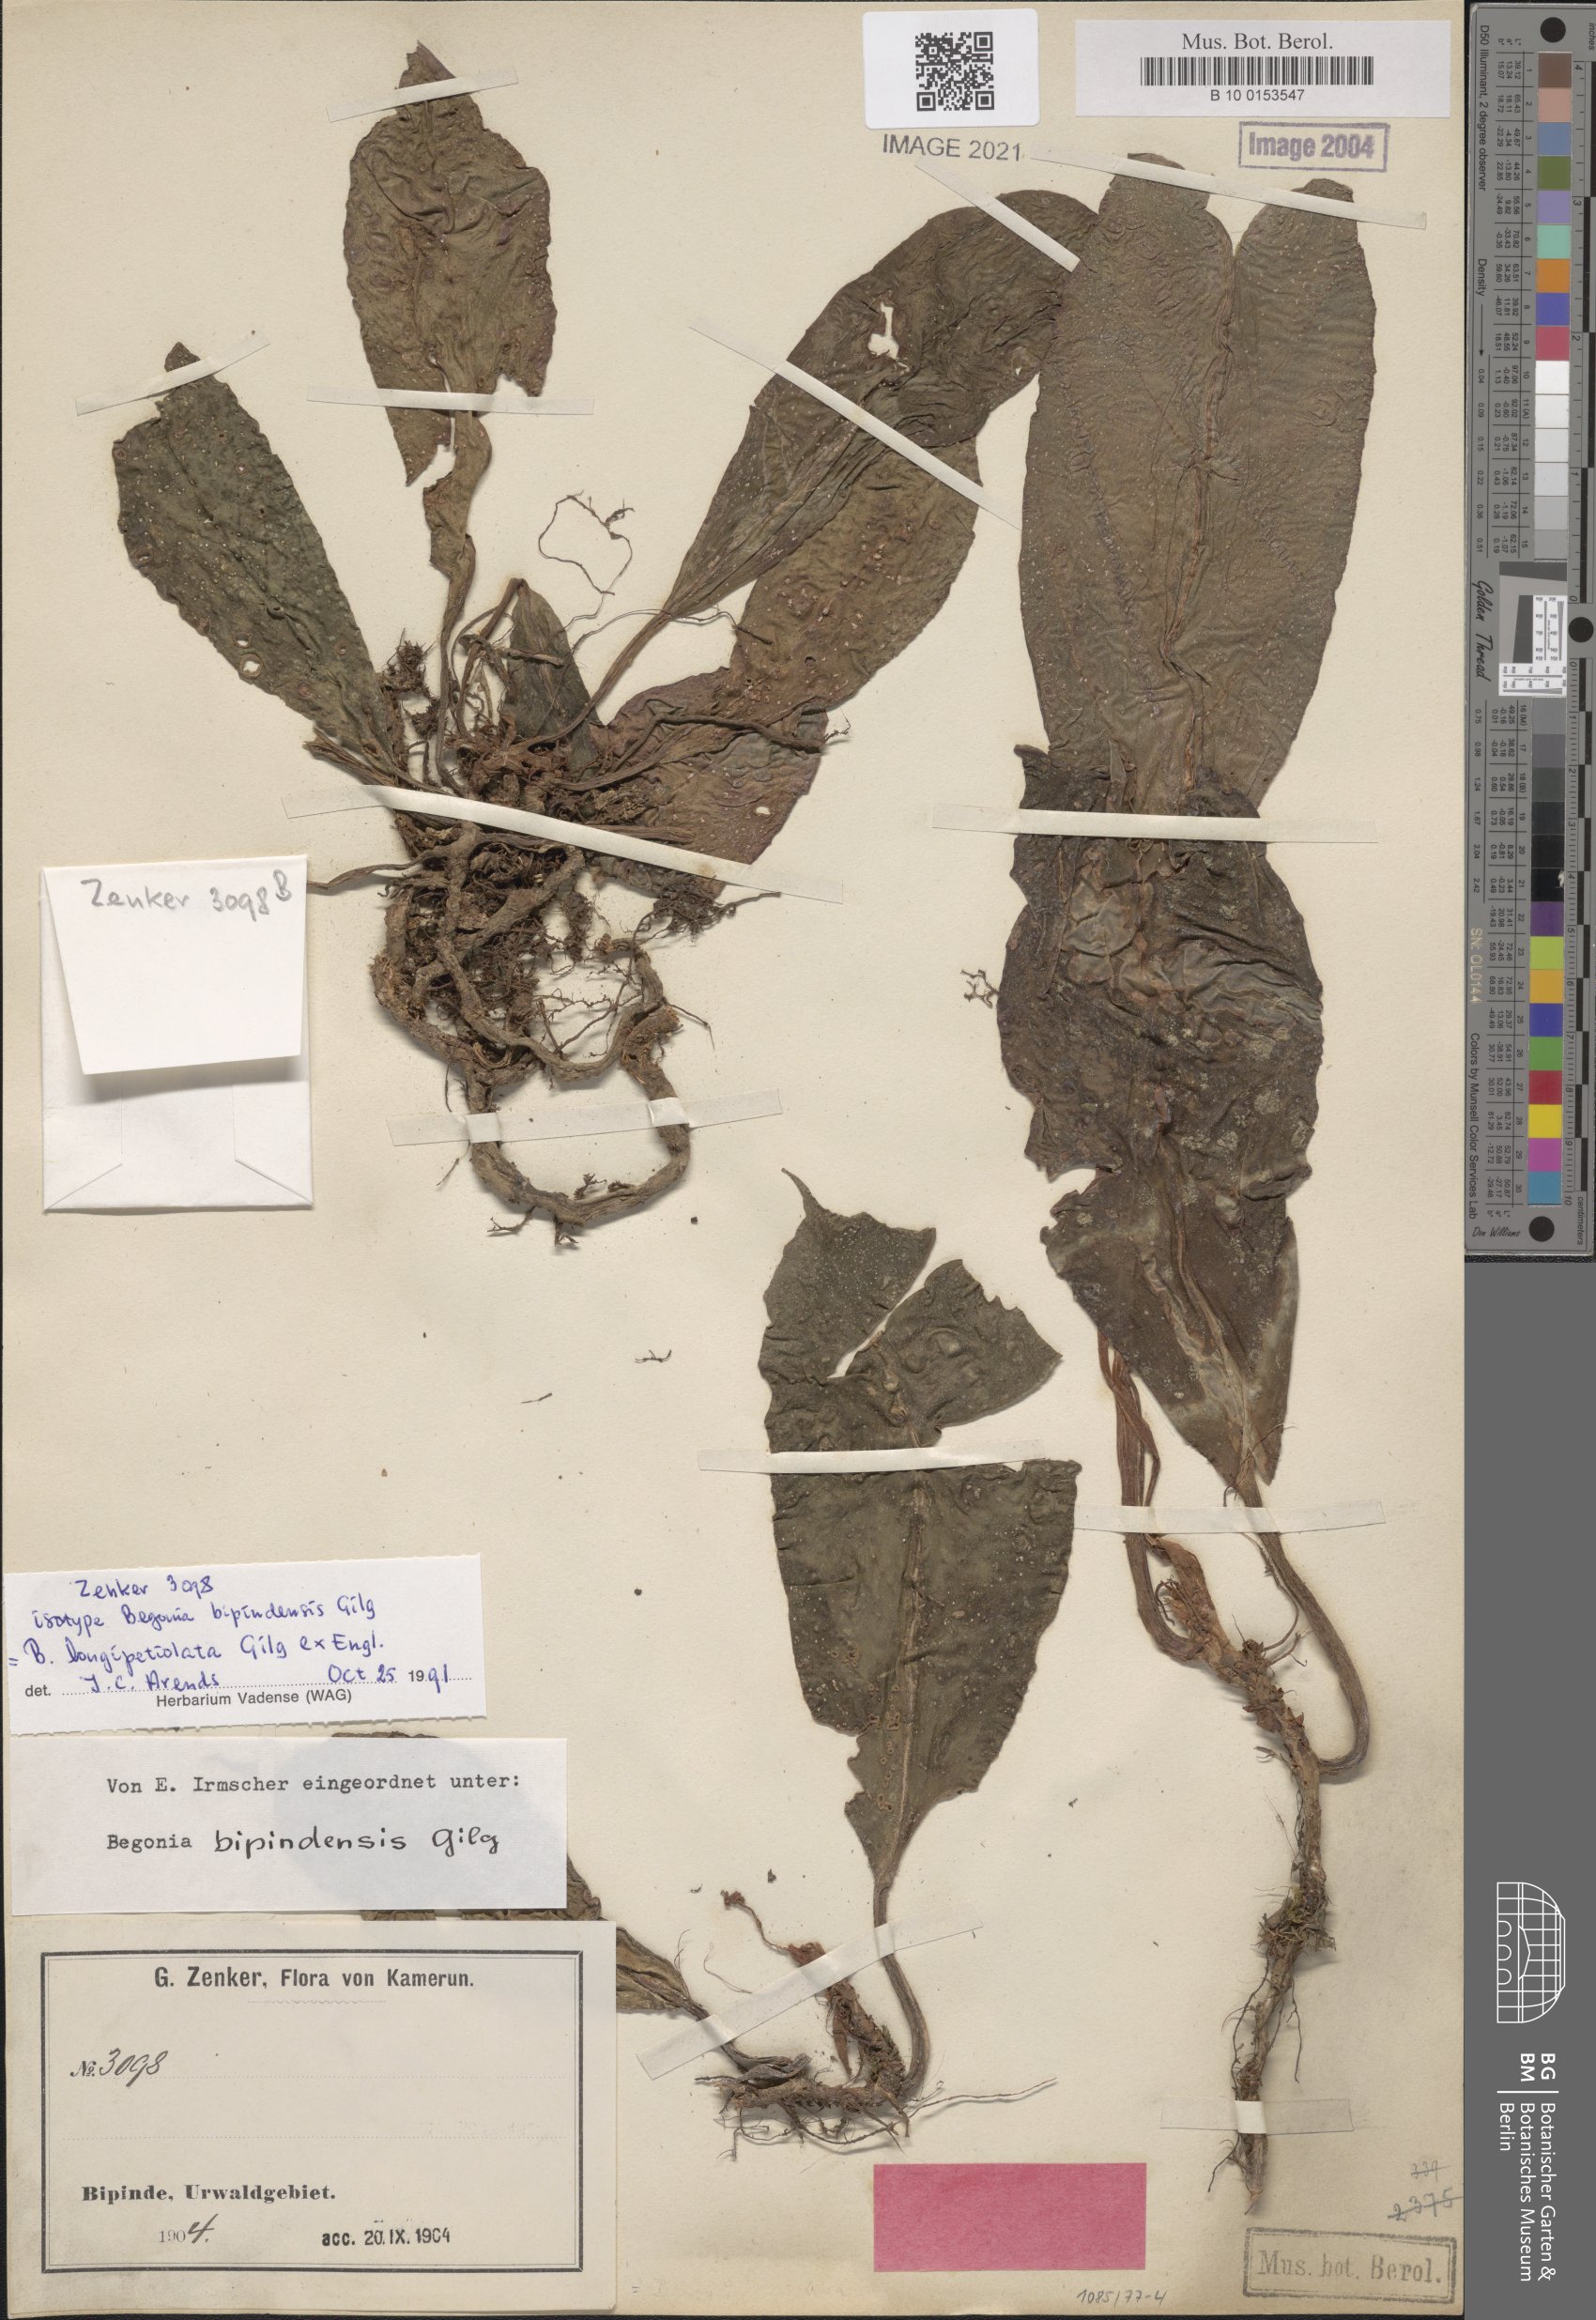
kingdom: Plantae
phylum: Tracheophyta
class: Magnoliopsida
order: Cucurbitales
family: Begoniaceae
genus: Begonia
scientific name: Begonia longipetiolata
